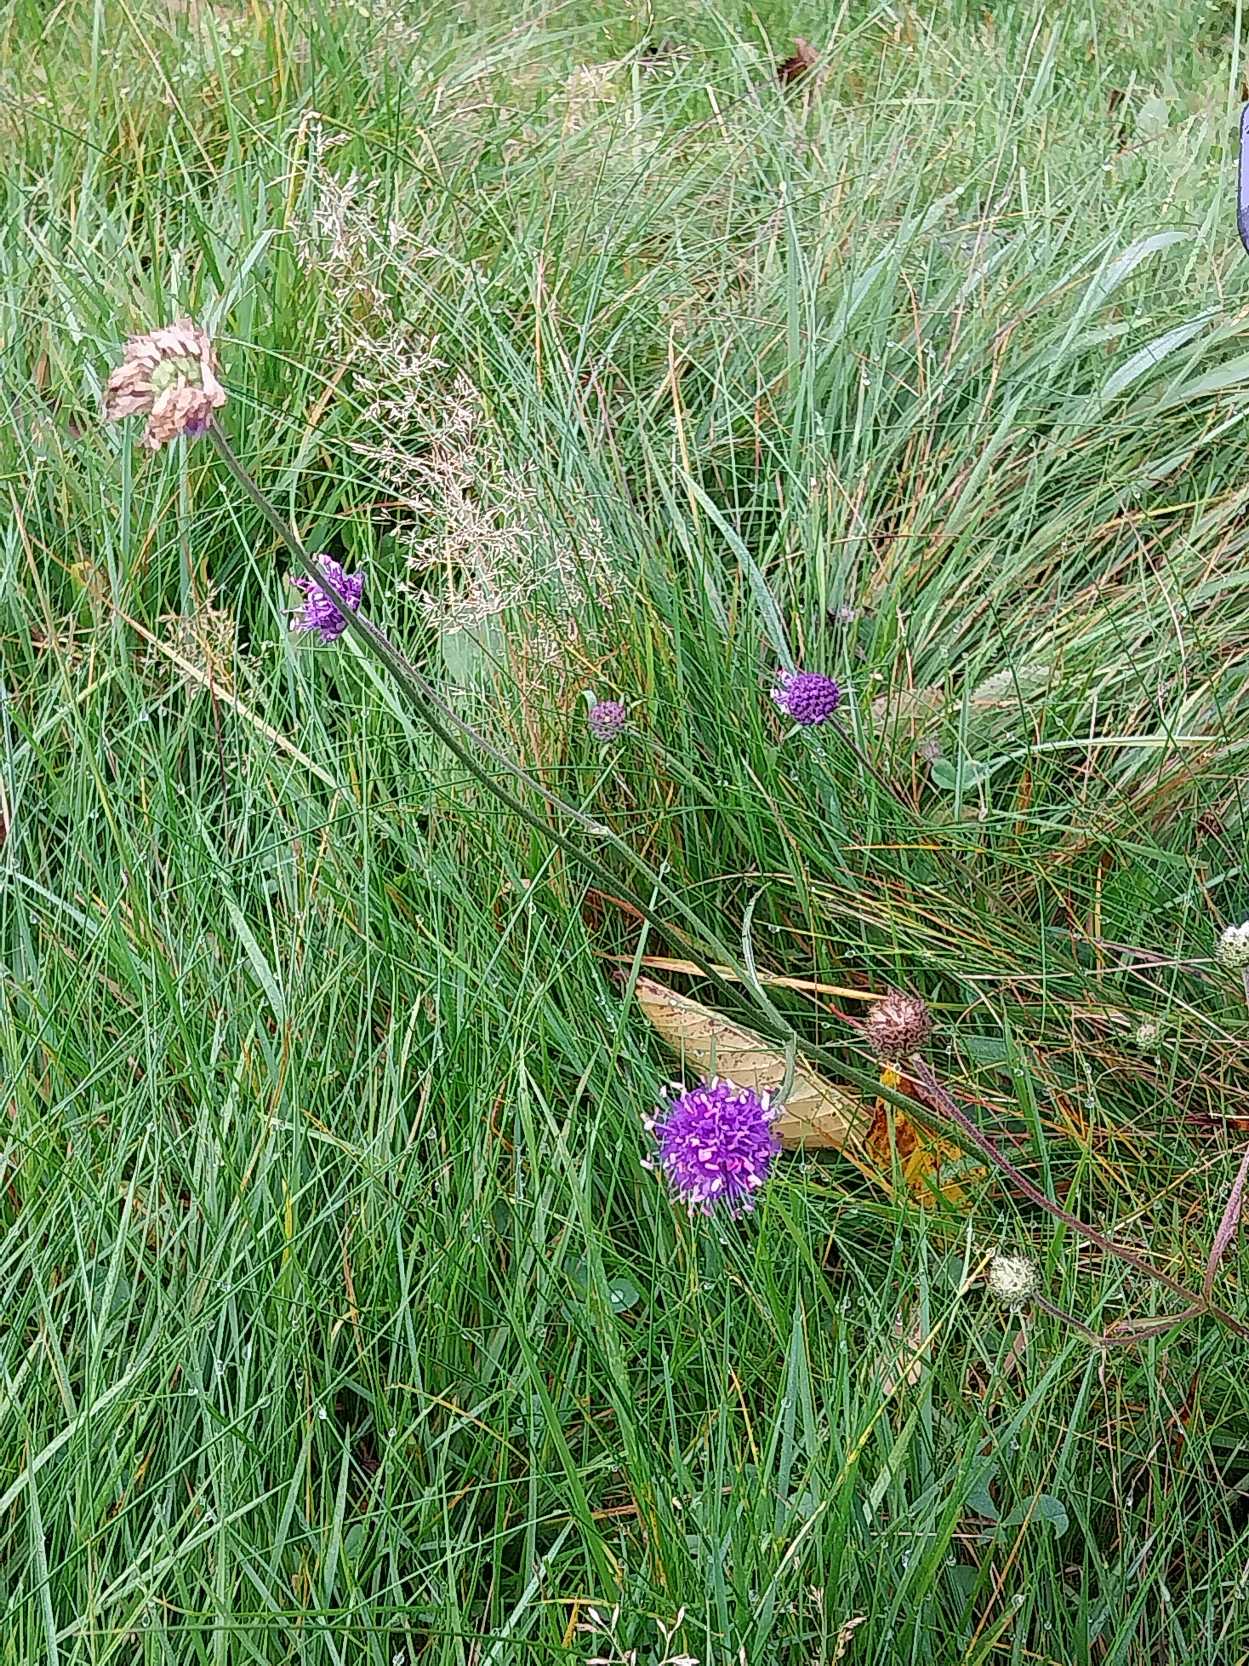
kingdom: Plantae
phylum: Tracheophyta
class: Magnoliopsida
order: Dipsacales
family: Caprifoliaceae
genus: Succisa
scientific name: Succisa pratensis
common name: Djævelsbid
